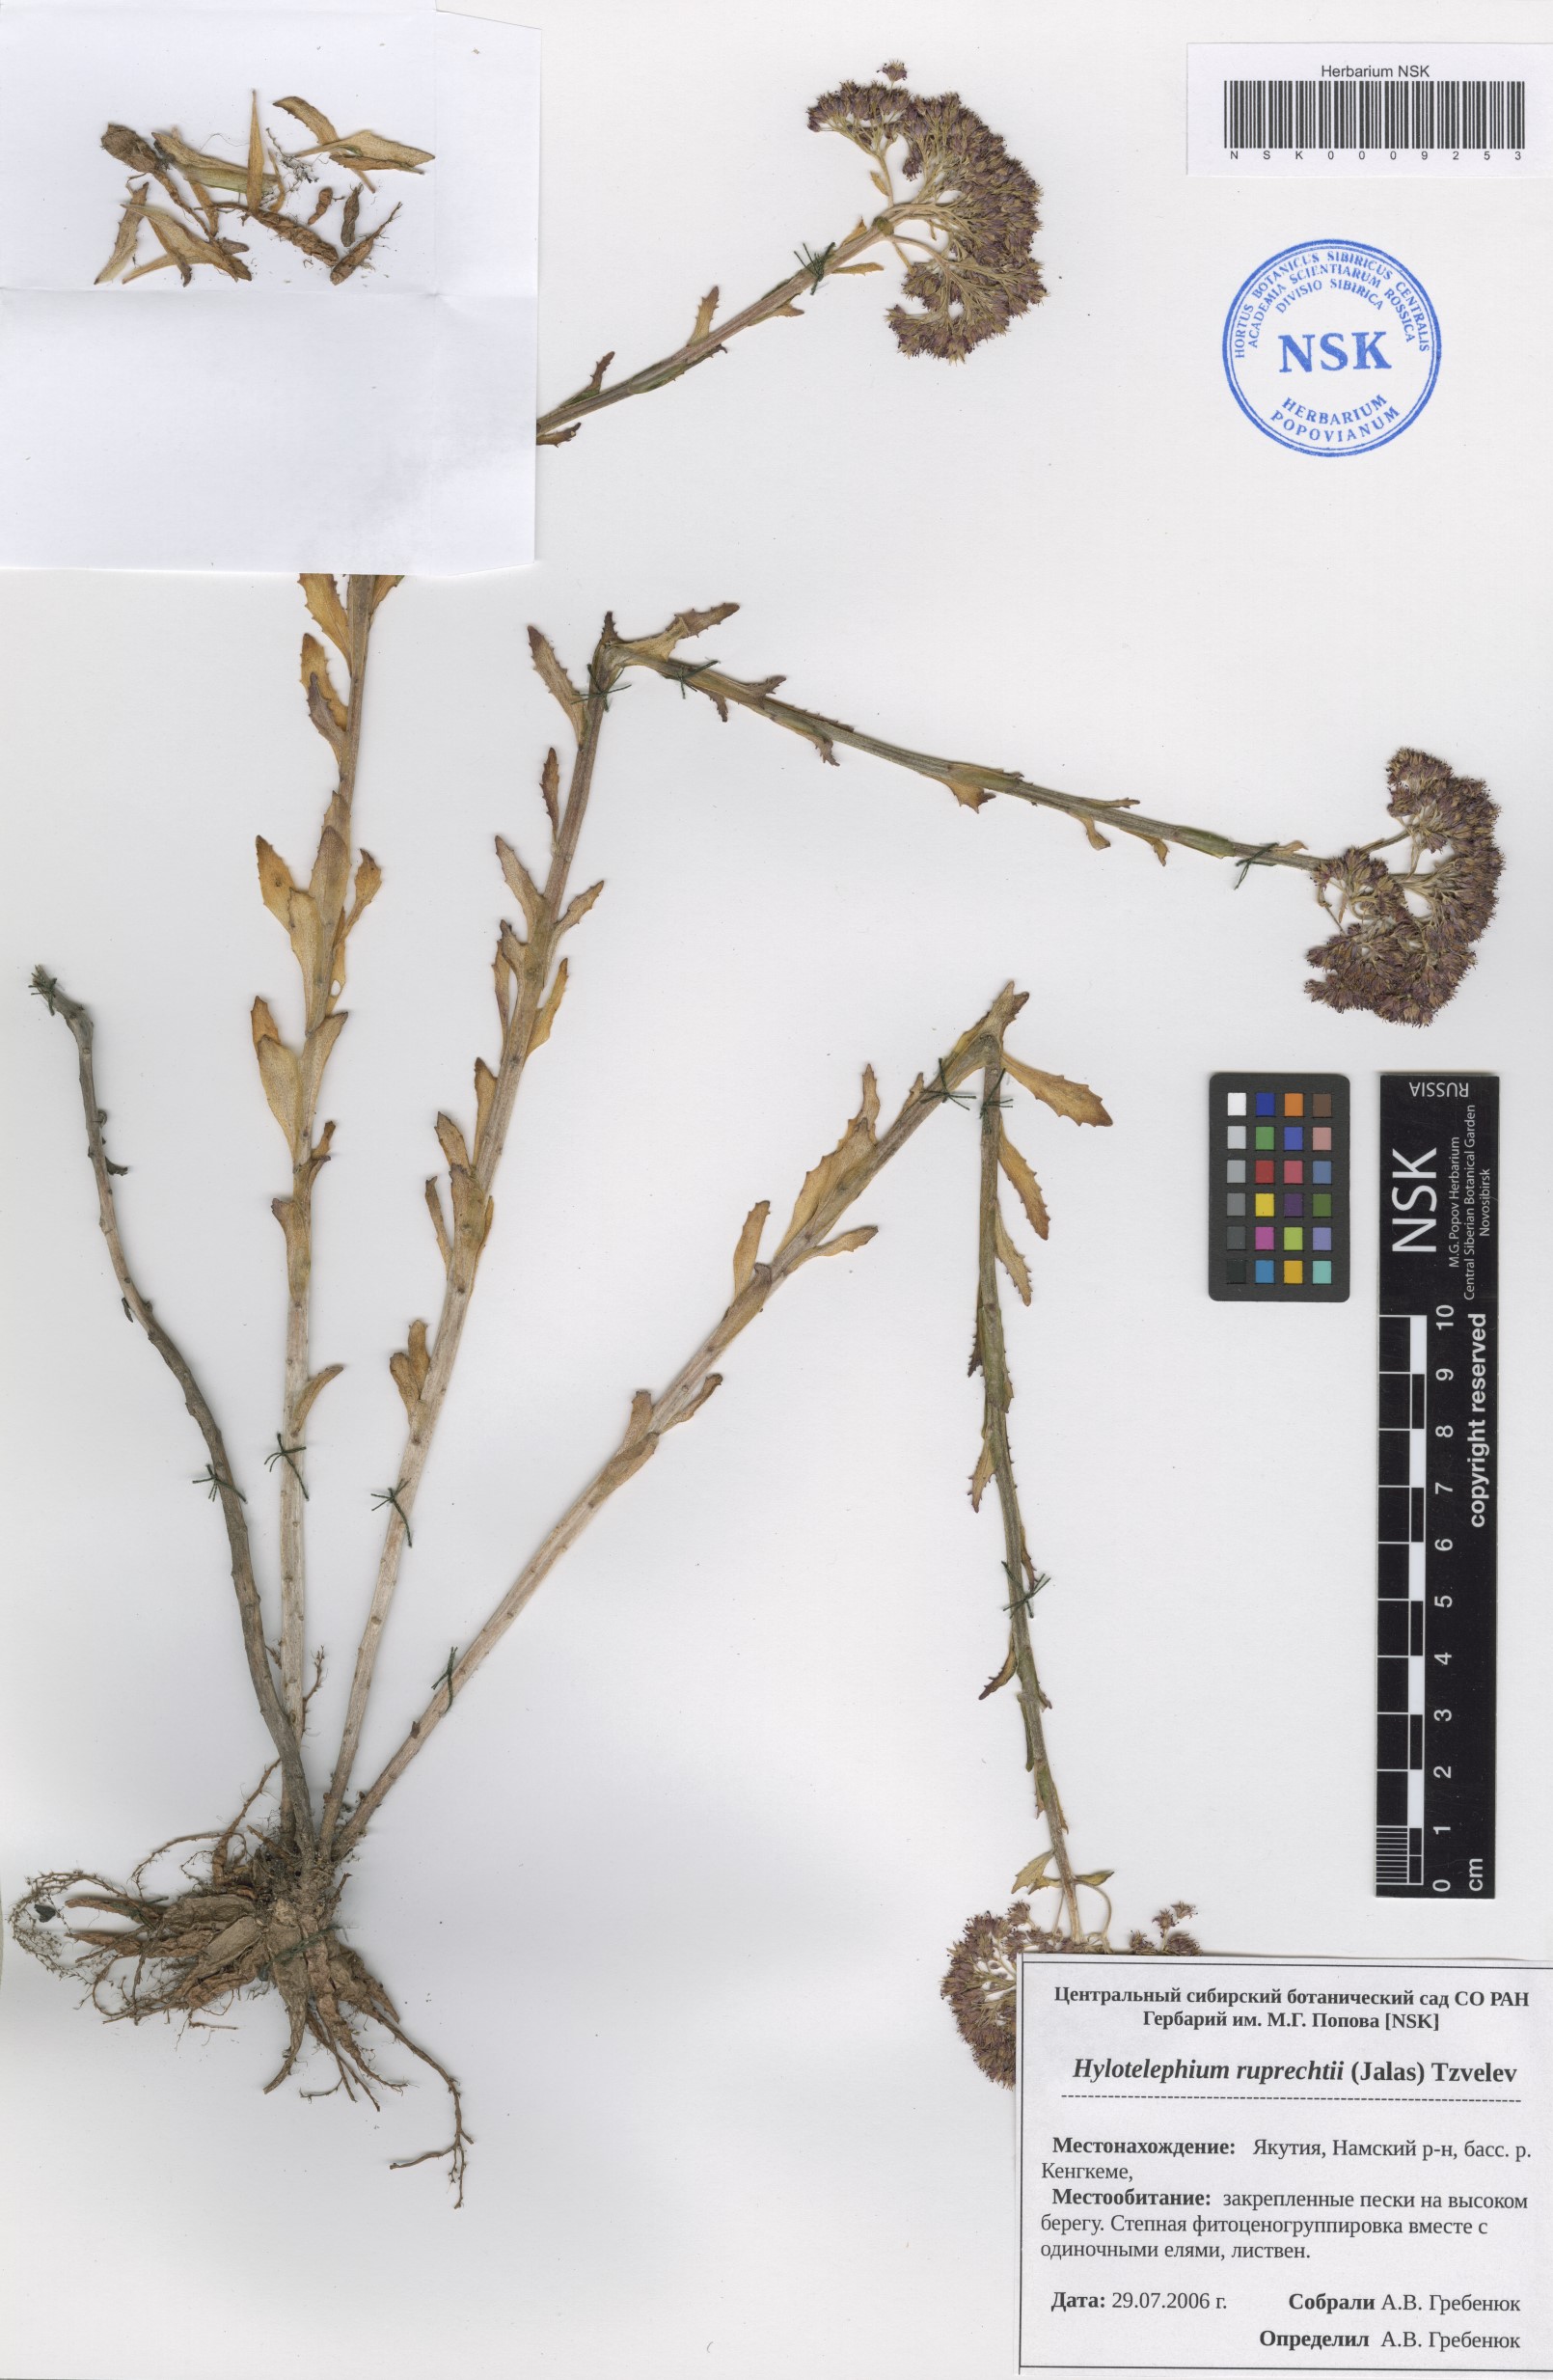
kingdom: Plantae
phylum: Tracheophyta
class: Magnoliopsida
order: Saxifragales
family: Crassulaceae
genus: Hylotelephium
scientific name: Hylotelephium maximum
